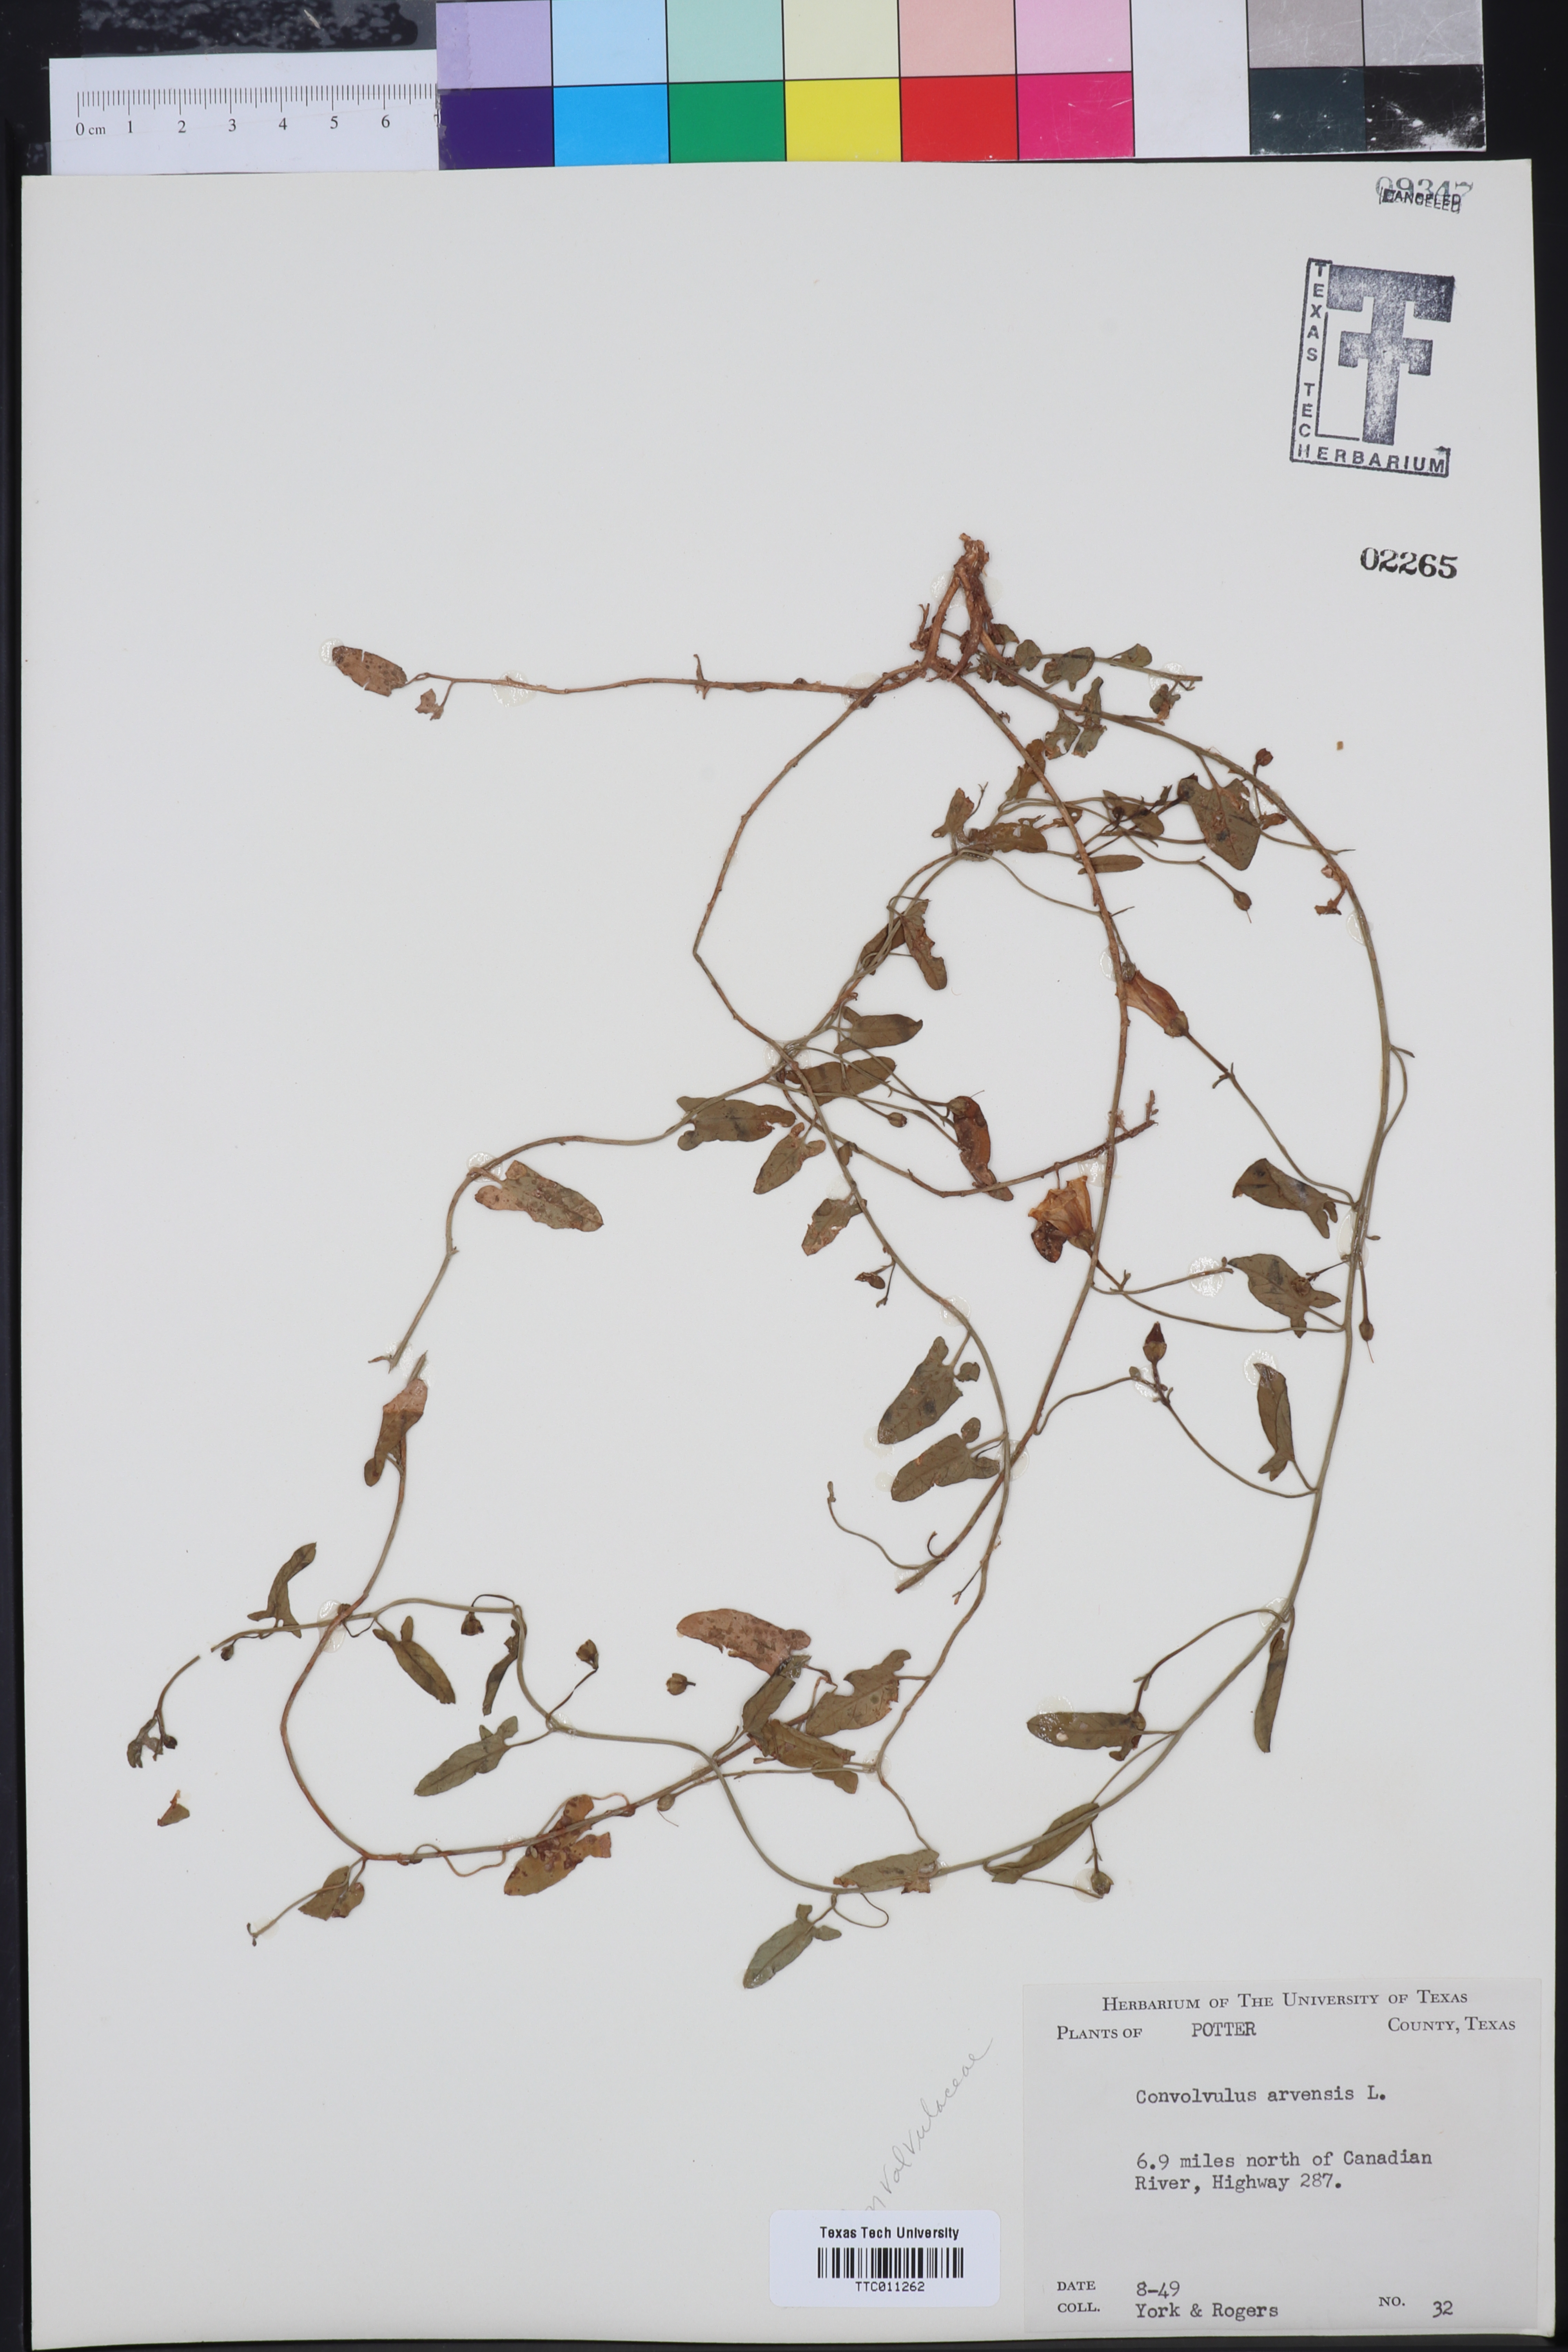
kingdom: Plantae
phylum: Tracheophyta
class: Magnoliopsida
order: Solanales
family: Convolvulaceae
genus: Convolvulus
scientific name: Convolvulus arvensis
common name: Field bindweed
